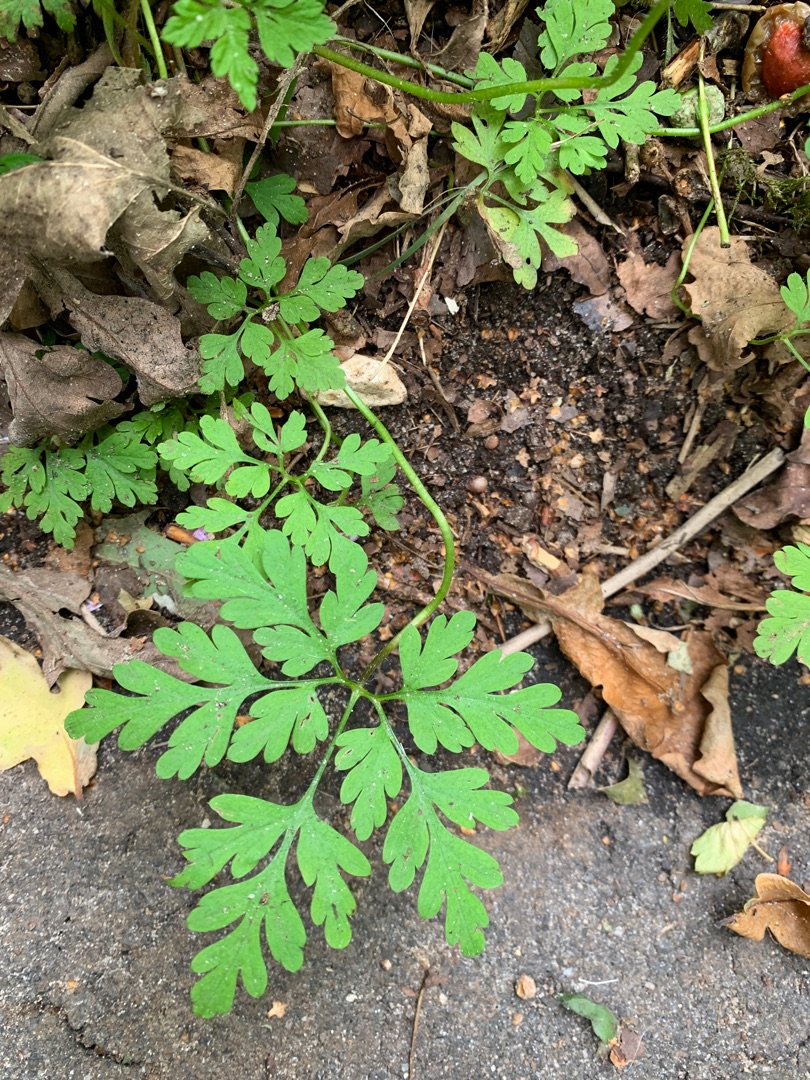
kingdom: Plantae
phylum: Tracheophyta
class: Magnoliopsida
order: Geraniales
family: Geraniaceae
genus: Geranium
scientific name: Geranium robertianum
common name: Stinkende storkenæb
